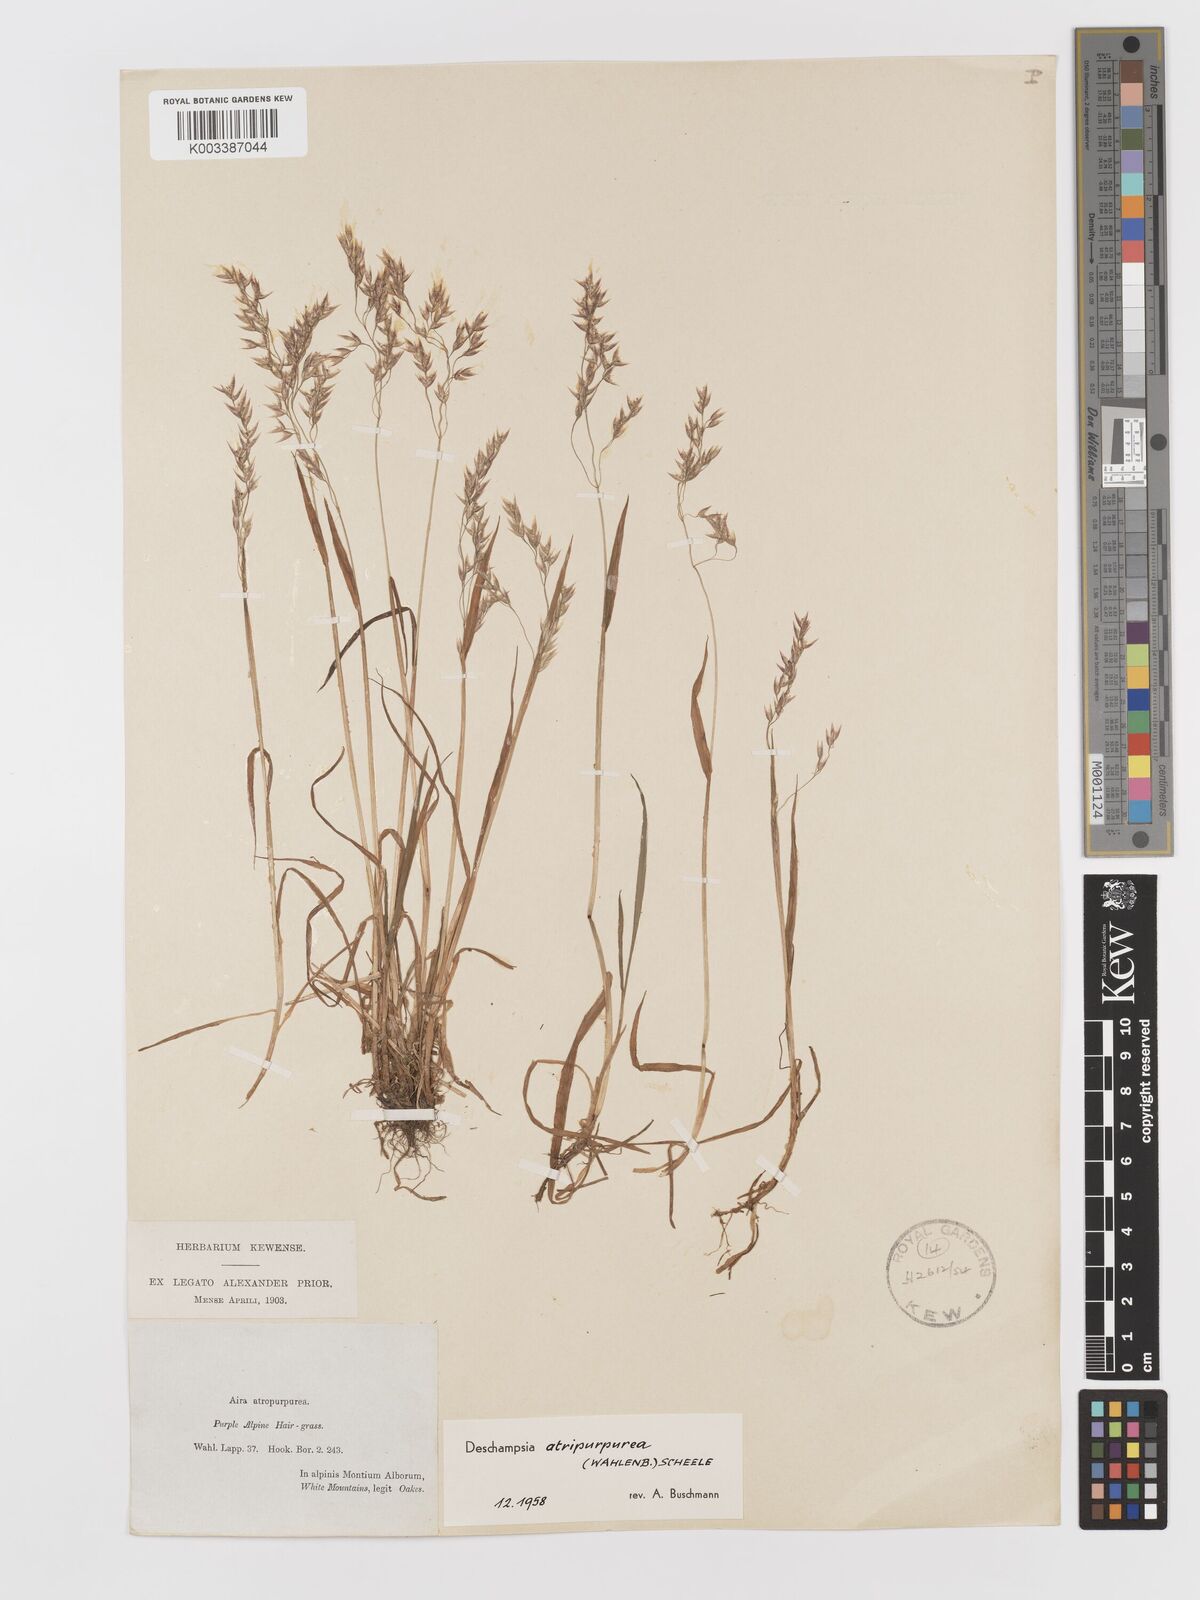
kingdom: Plantae
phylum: Tracheophyta
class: Liliopsida
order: Poales
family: Poaceae
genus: Vahlodea
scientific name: Vahlodea atropurpurea
